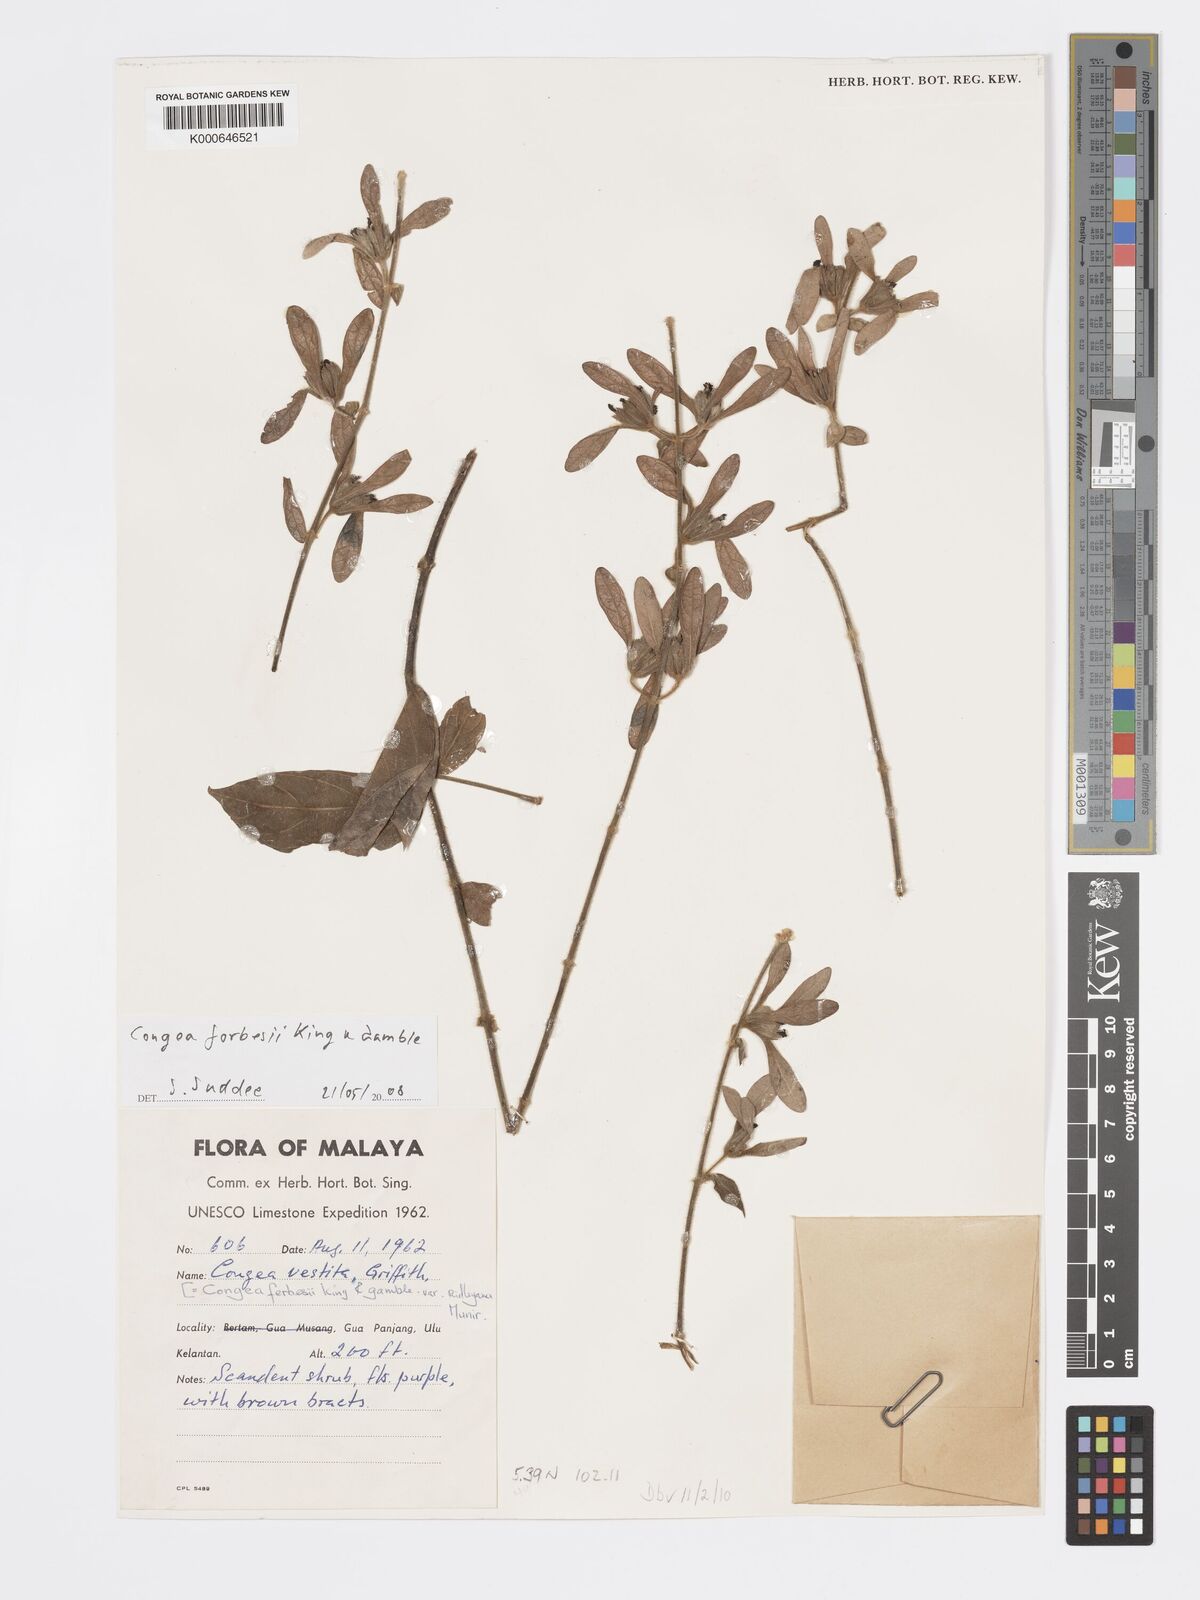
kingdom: Plantae
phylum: Tracheophyta
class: Magnoliopsida
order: Lamiales
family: Lamiaceae
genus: Congea
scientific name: Congea
